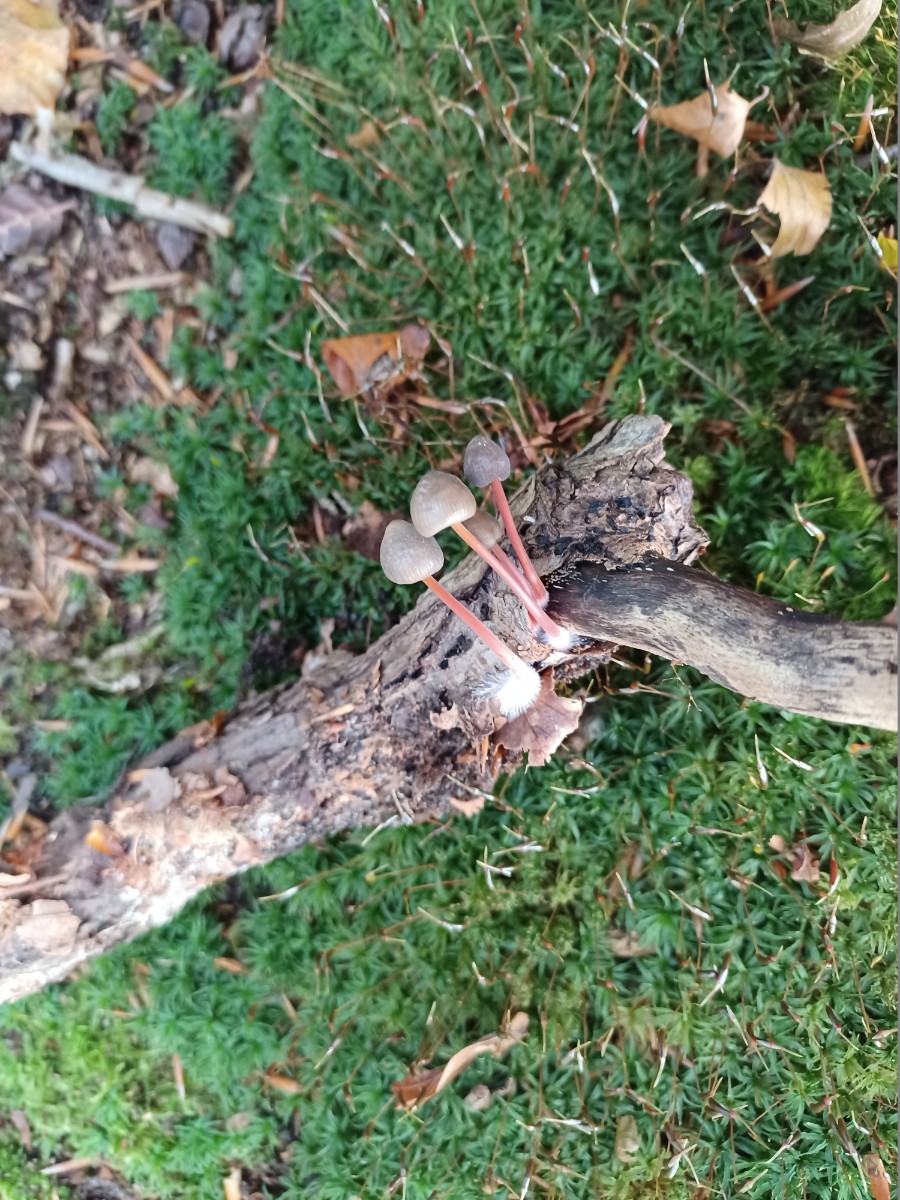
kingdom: Fungi
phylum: Basidiomycota
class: Agaricomycetes
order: Agaricales
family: Mycenaceae
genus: Mycena
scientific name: Mycena crocata
